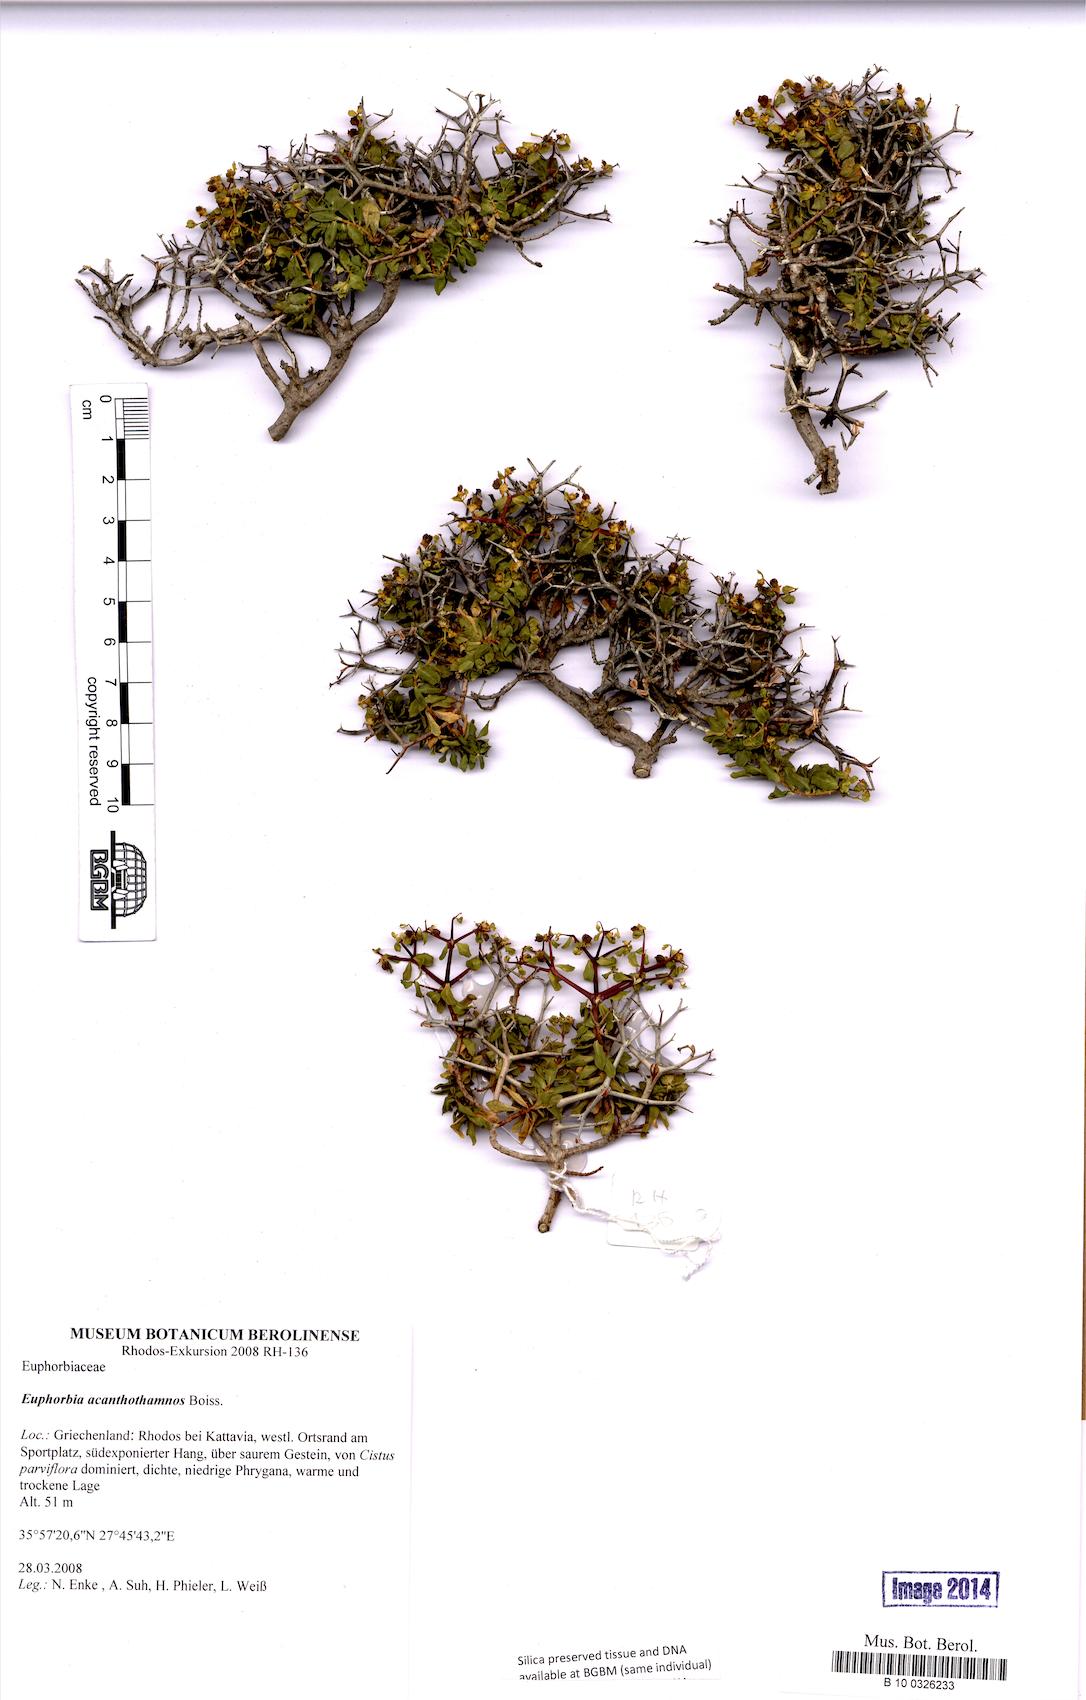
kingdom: Plantae
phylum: Tracheophyta
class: Magnoliopsida
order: Malpighiales
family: Euphorbiaceae
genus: Euphorbia
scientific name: Euphorbia acanthothamnos
